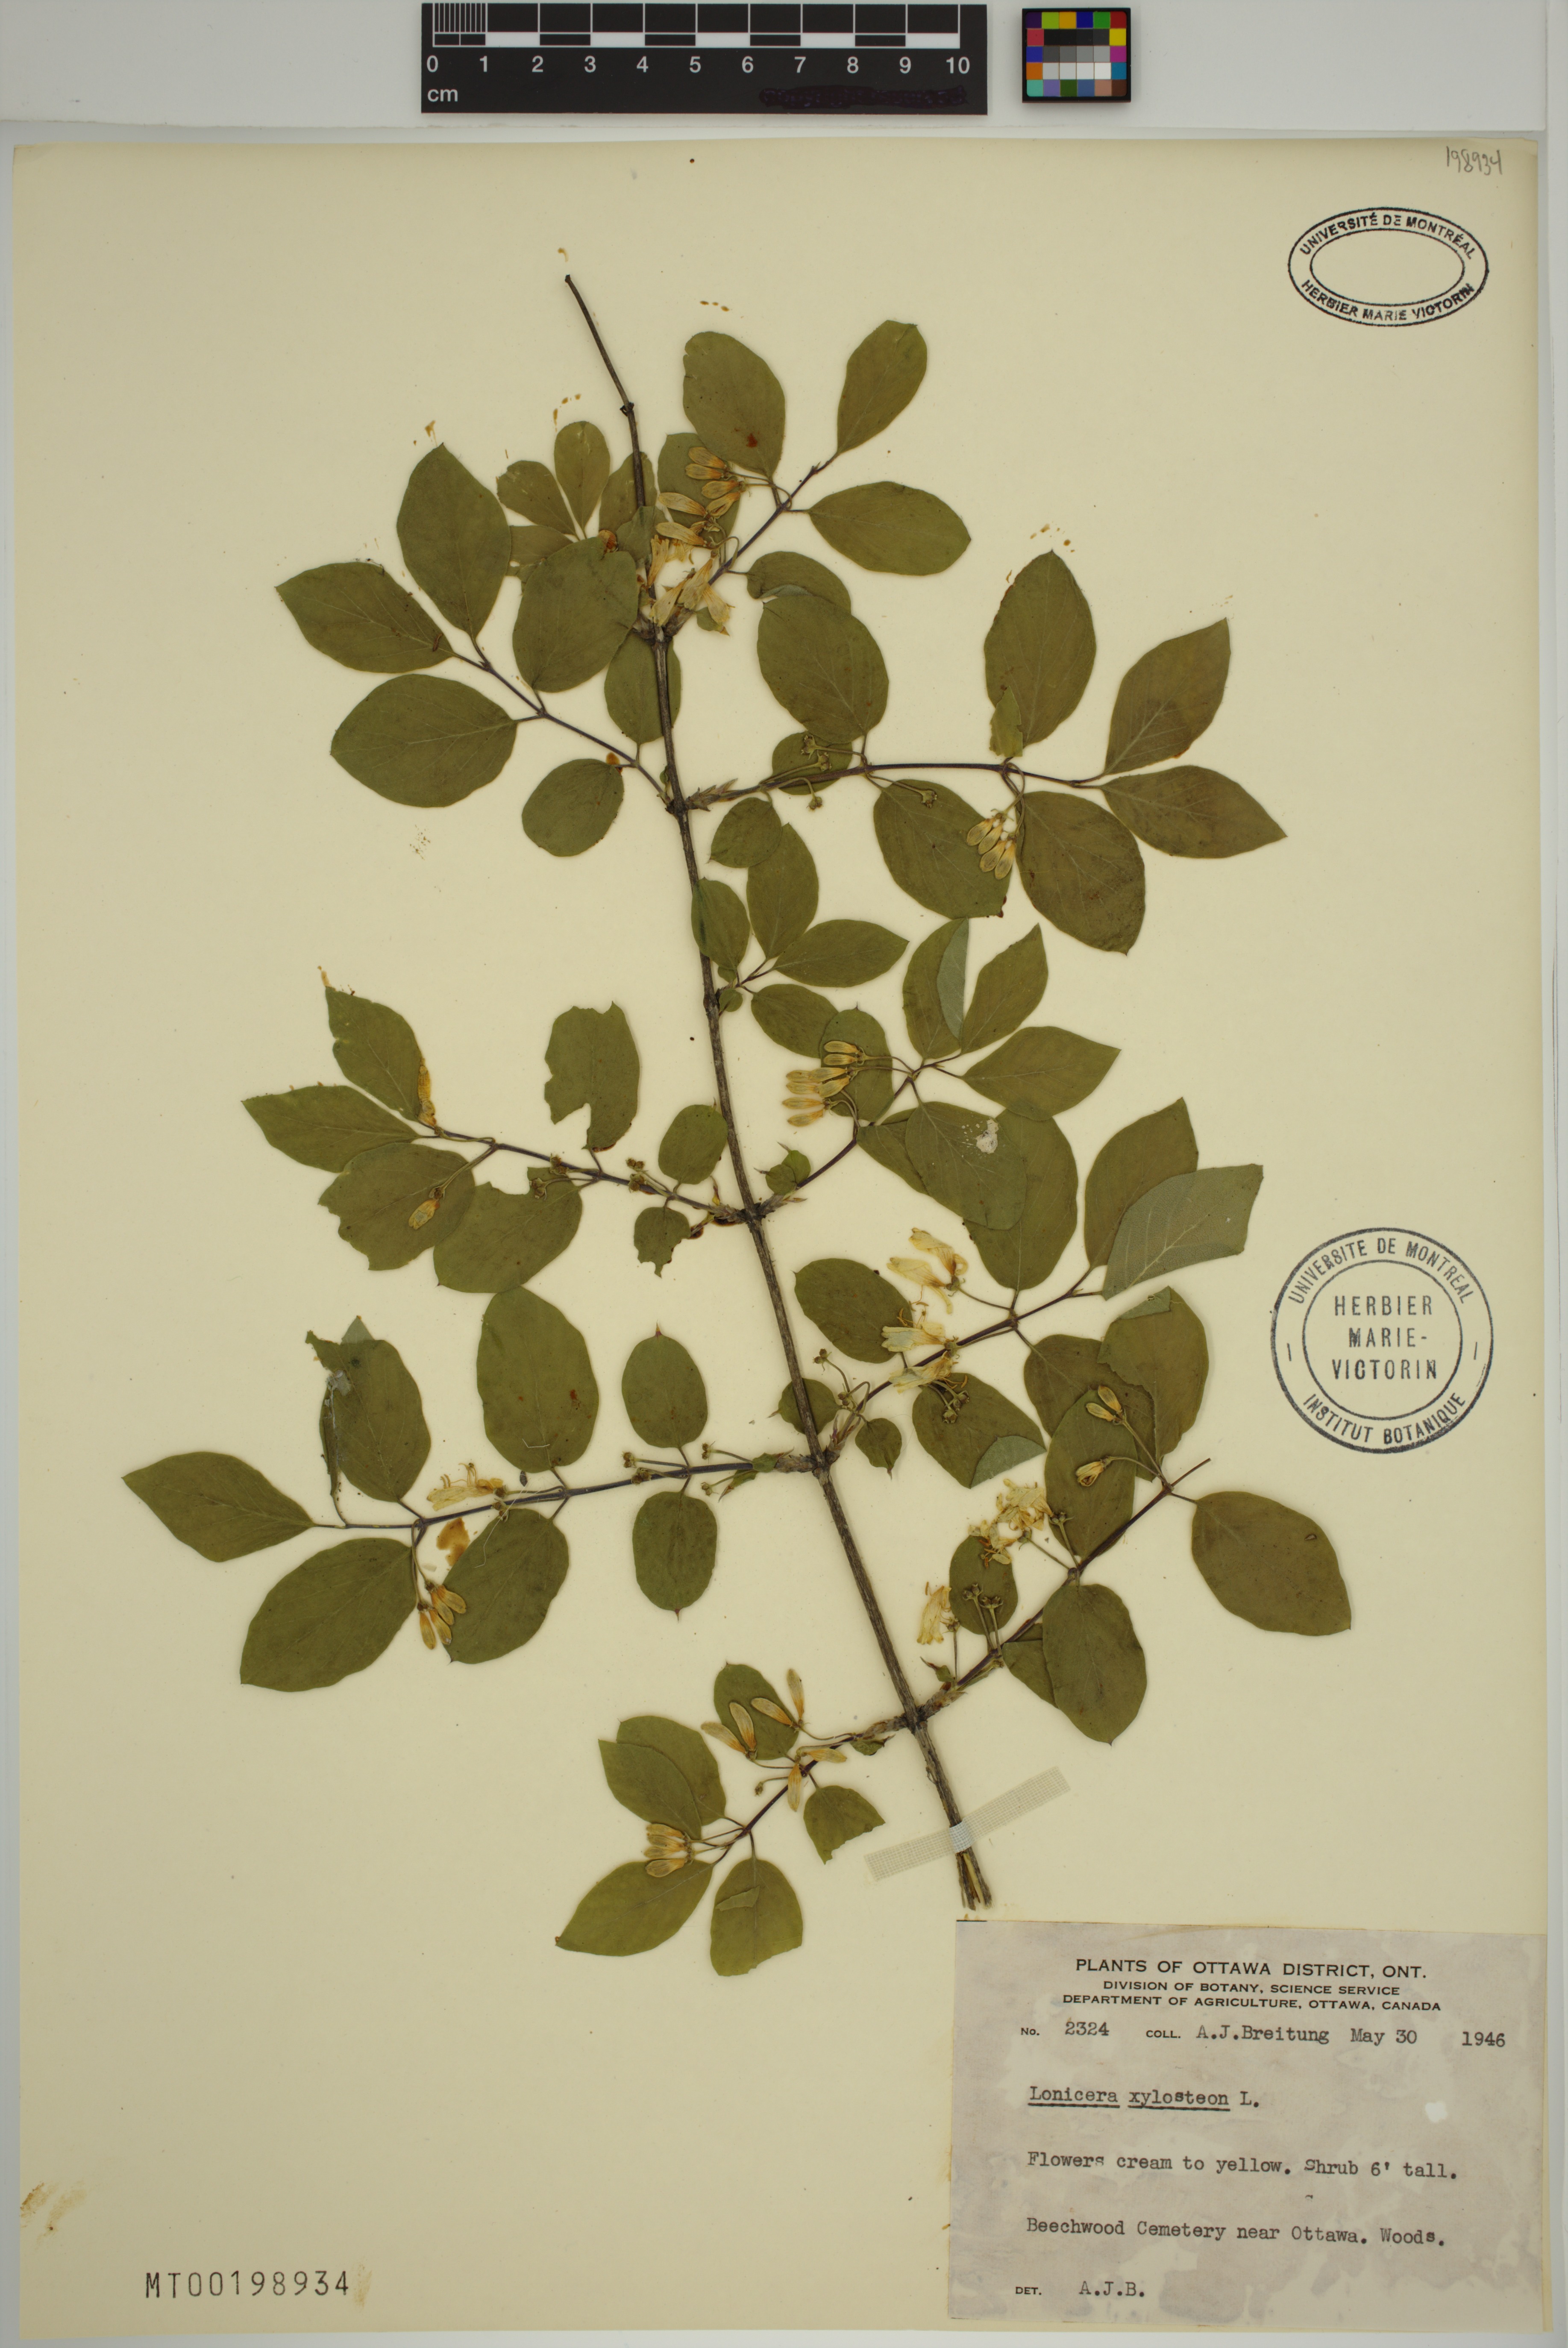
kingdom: Plantae
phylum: Tracheophyta
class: Magnoliopsida
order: Dipsacales
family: Caprifoliaceae
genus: Lonicera
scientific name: Lonicera xylosteum
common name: Fly honeysuckle
